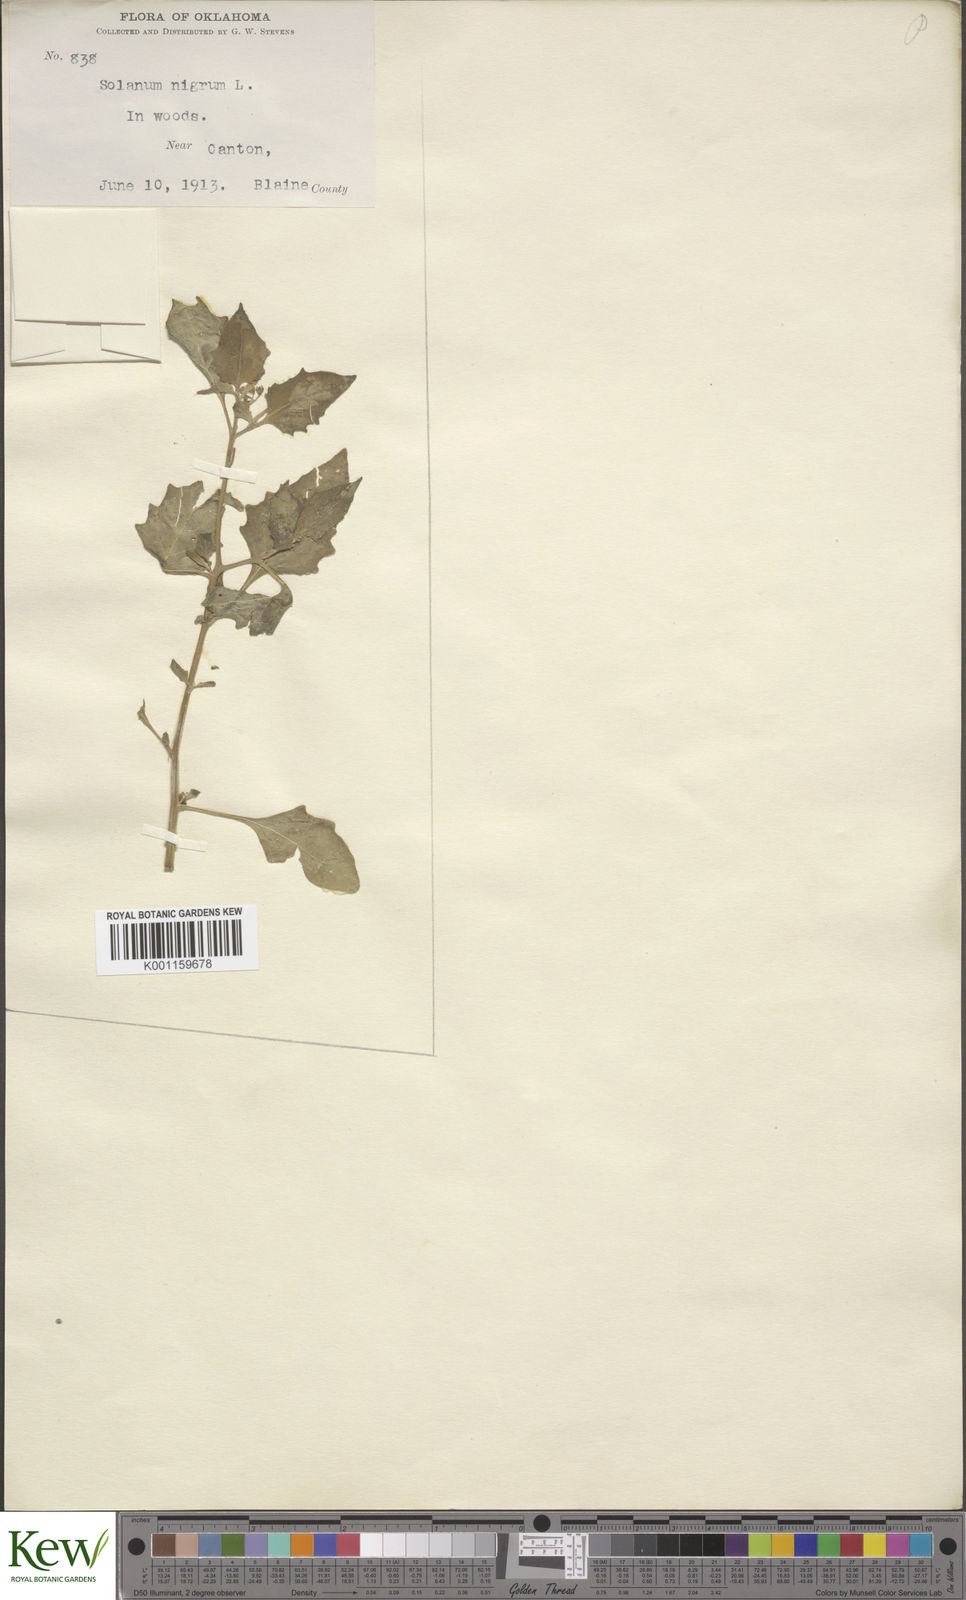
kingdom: Plantae
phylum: Tracheophyta
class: Magnoliopsida
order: Solanales
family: Solanaceae
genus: Solanum
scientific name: Solanum interius
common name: Plains black nightshade
